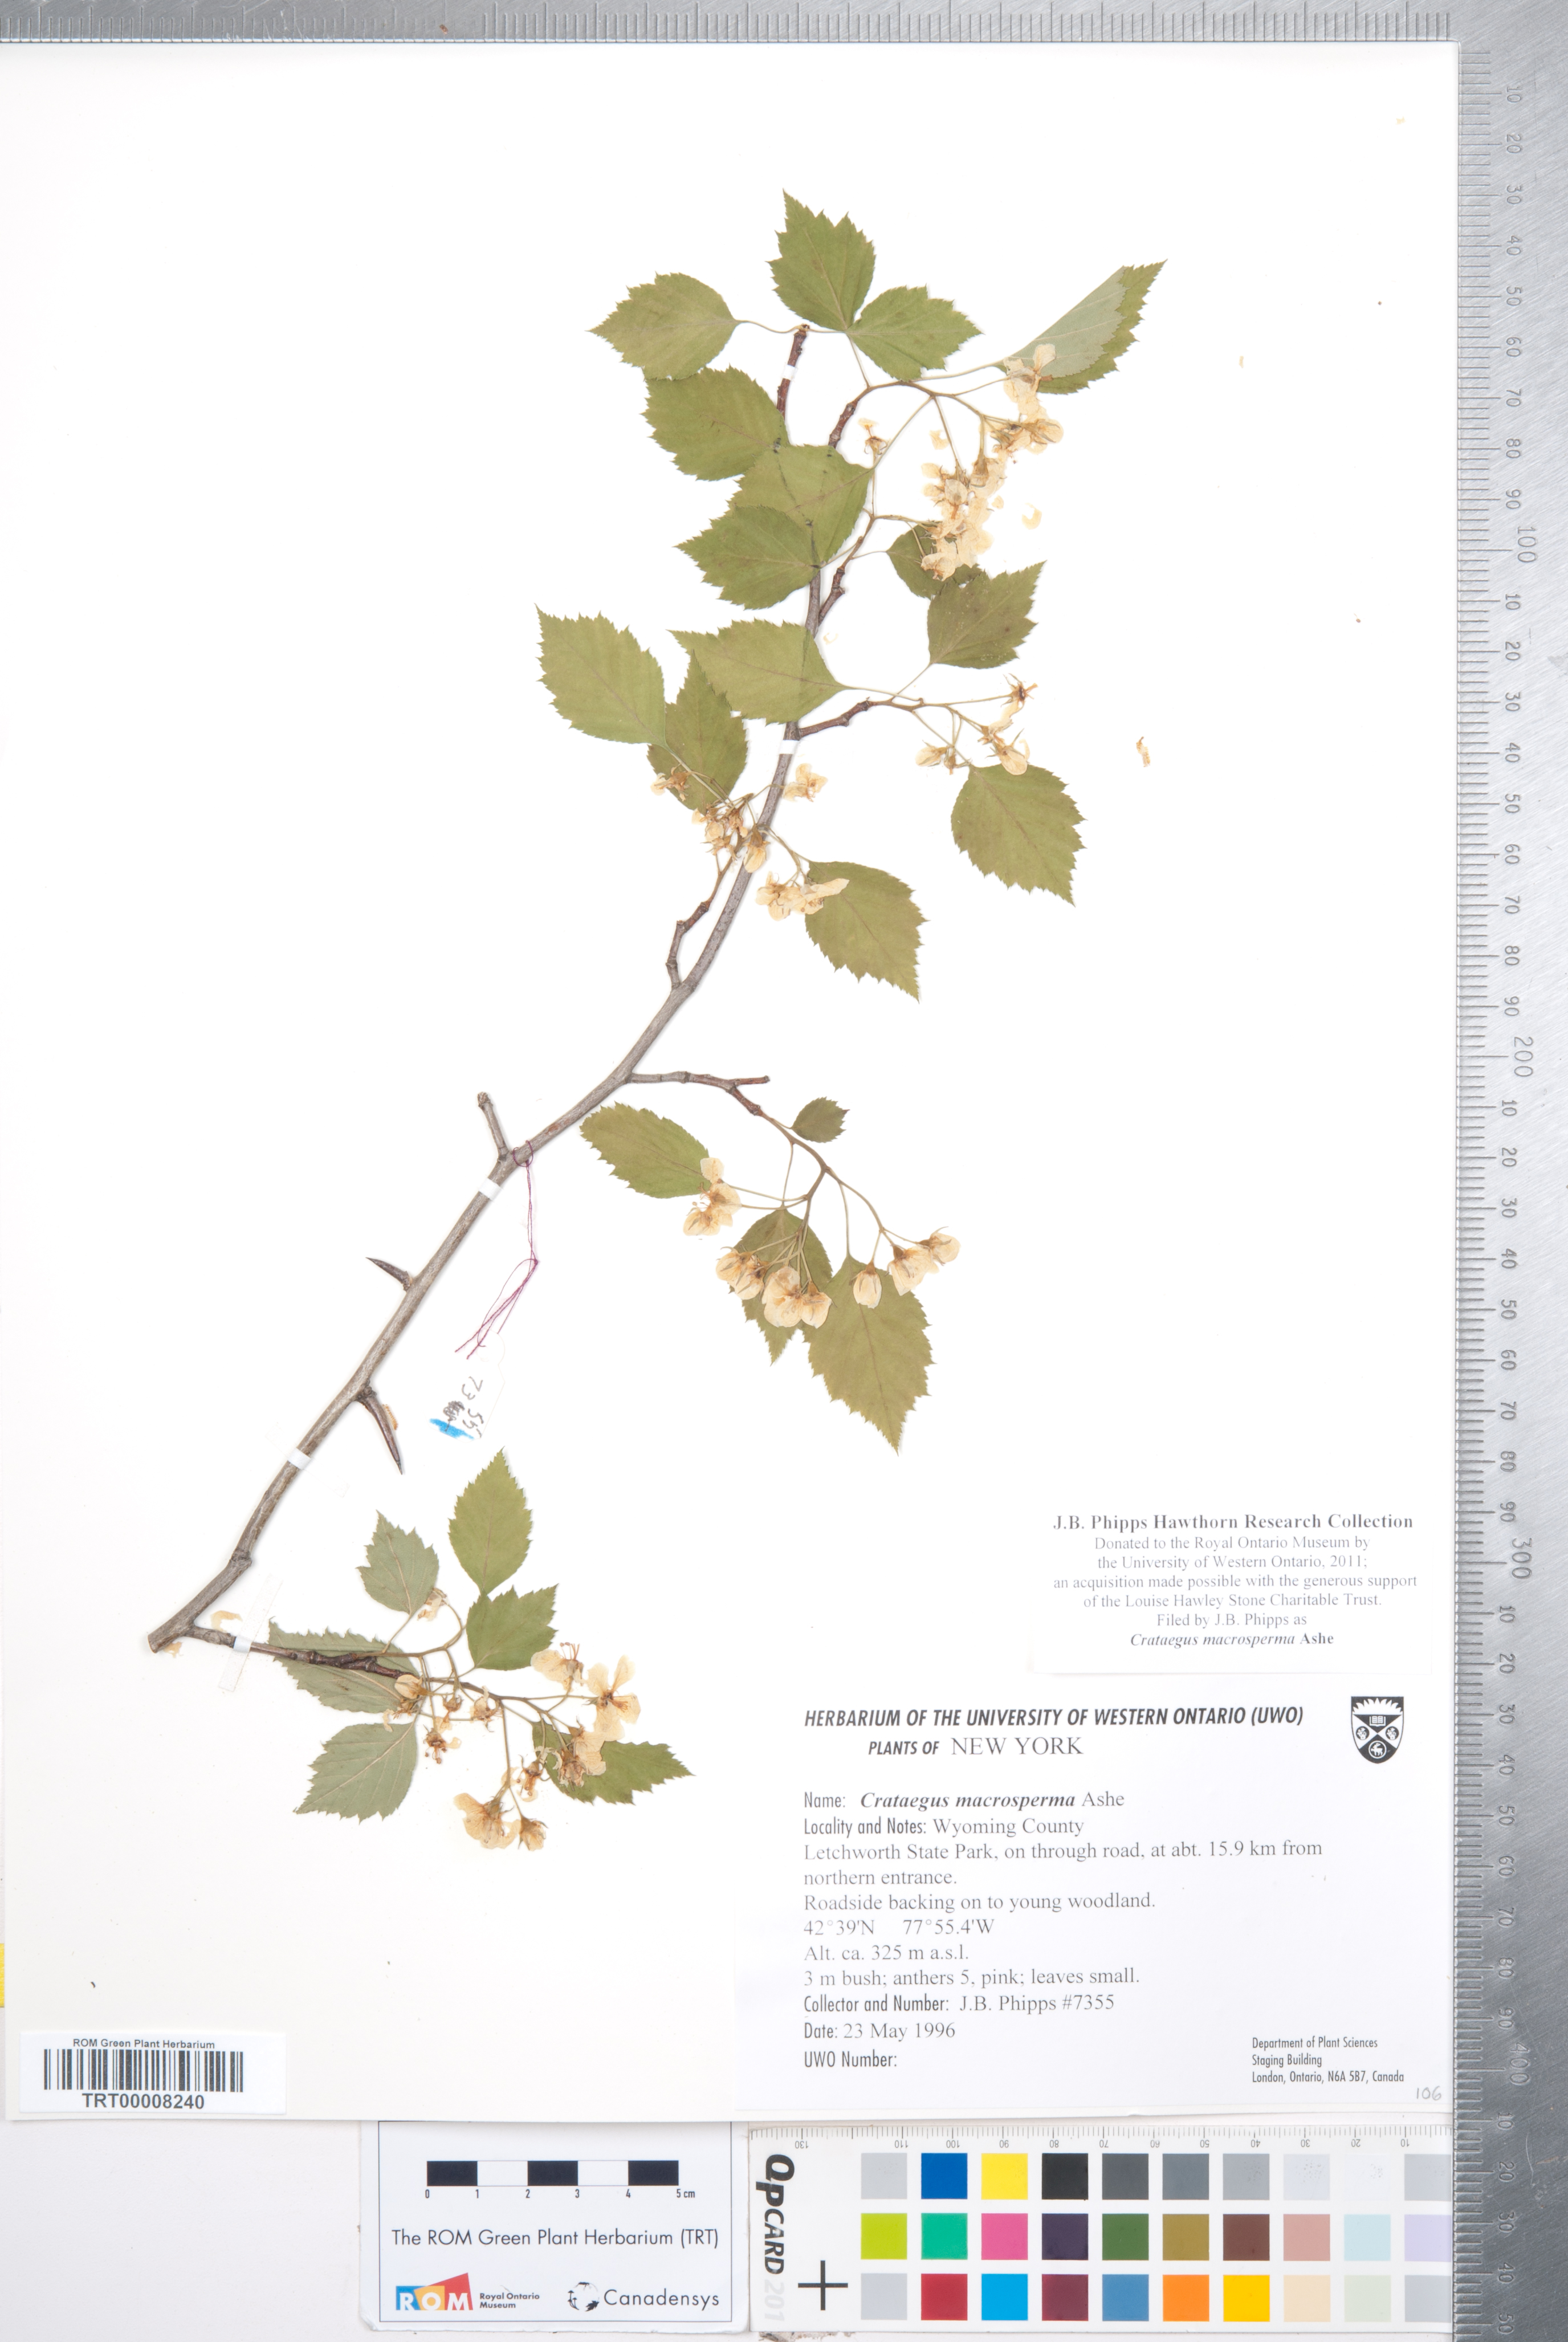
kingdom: Plantae
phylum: Tracheophyta
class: Magnoliopsida
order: Rosales
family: Rosaceae
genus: Crataegus
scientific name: Crataegus macrosperma
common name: Variable hawthorn
